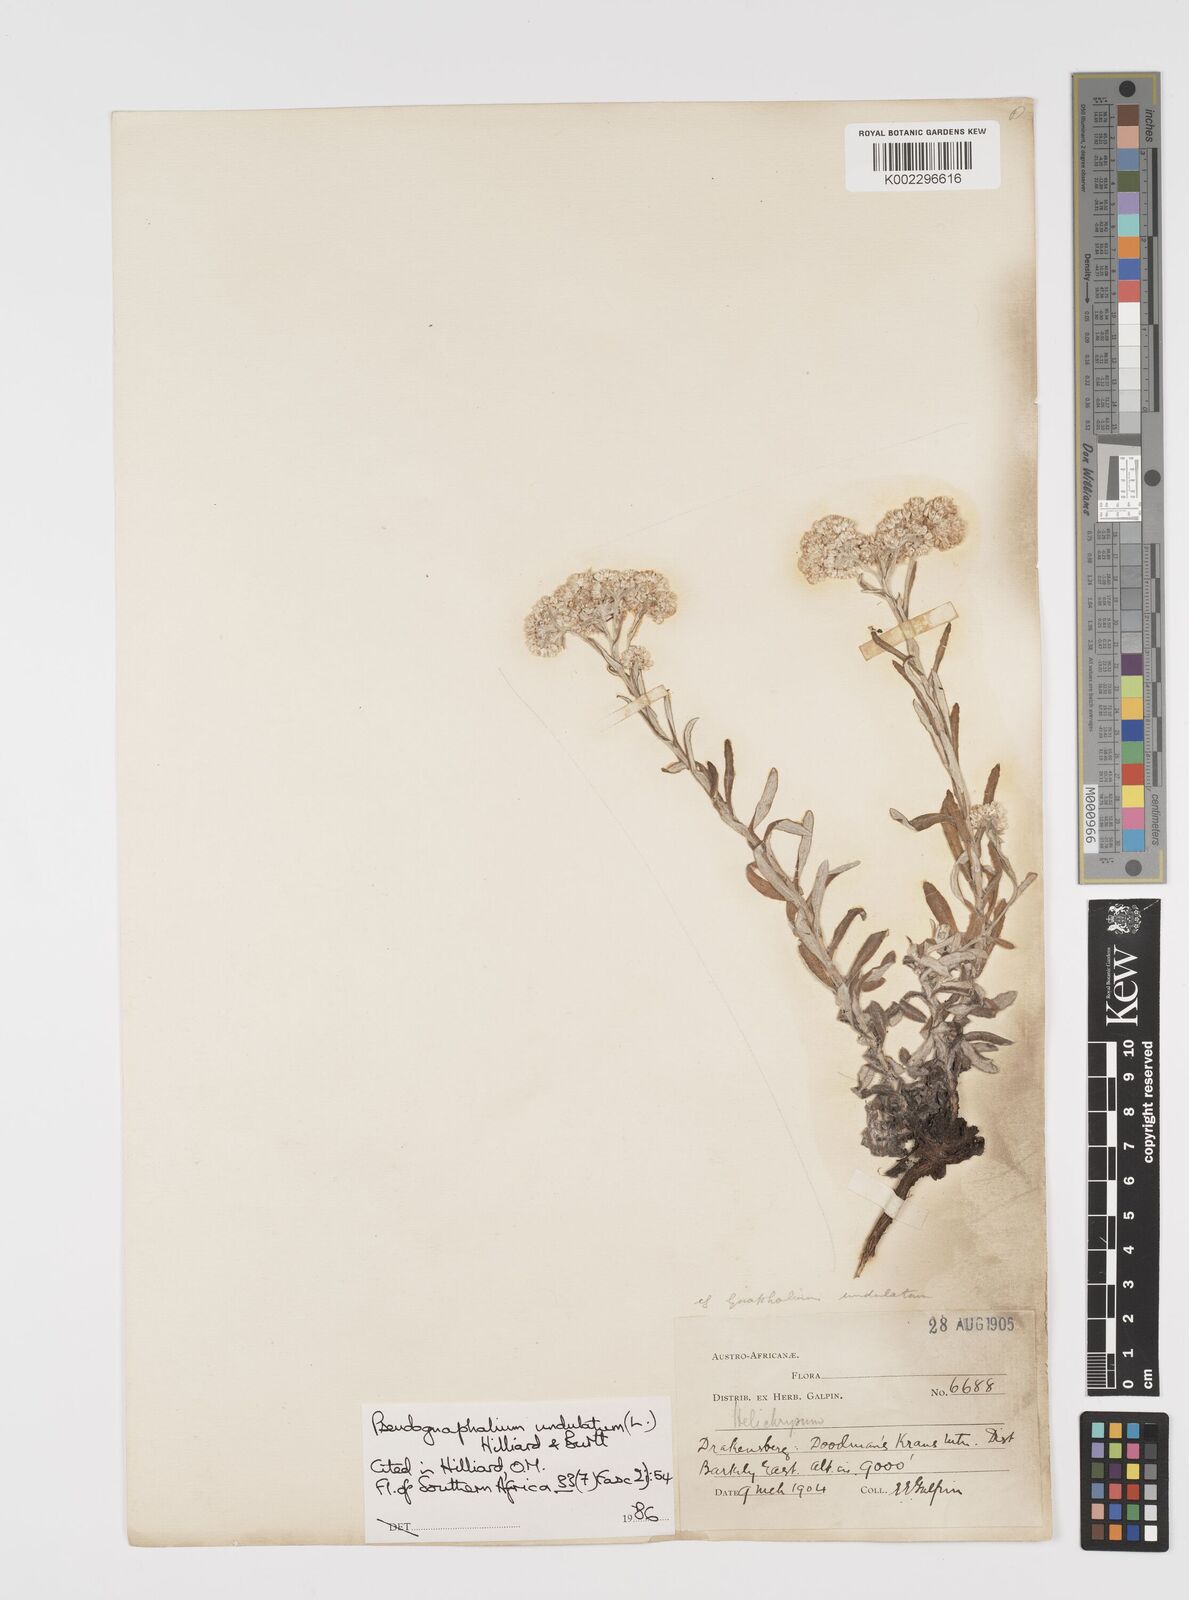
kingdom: Plantae
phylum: Tracheophyta
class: Magnoliopsida
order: Asterales
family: Asteraceae
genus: Pseudognaphalium
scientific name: Pseudognaphalium undulatum
